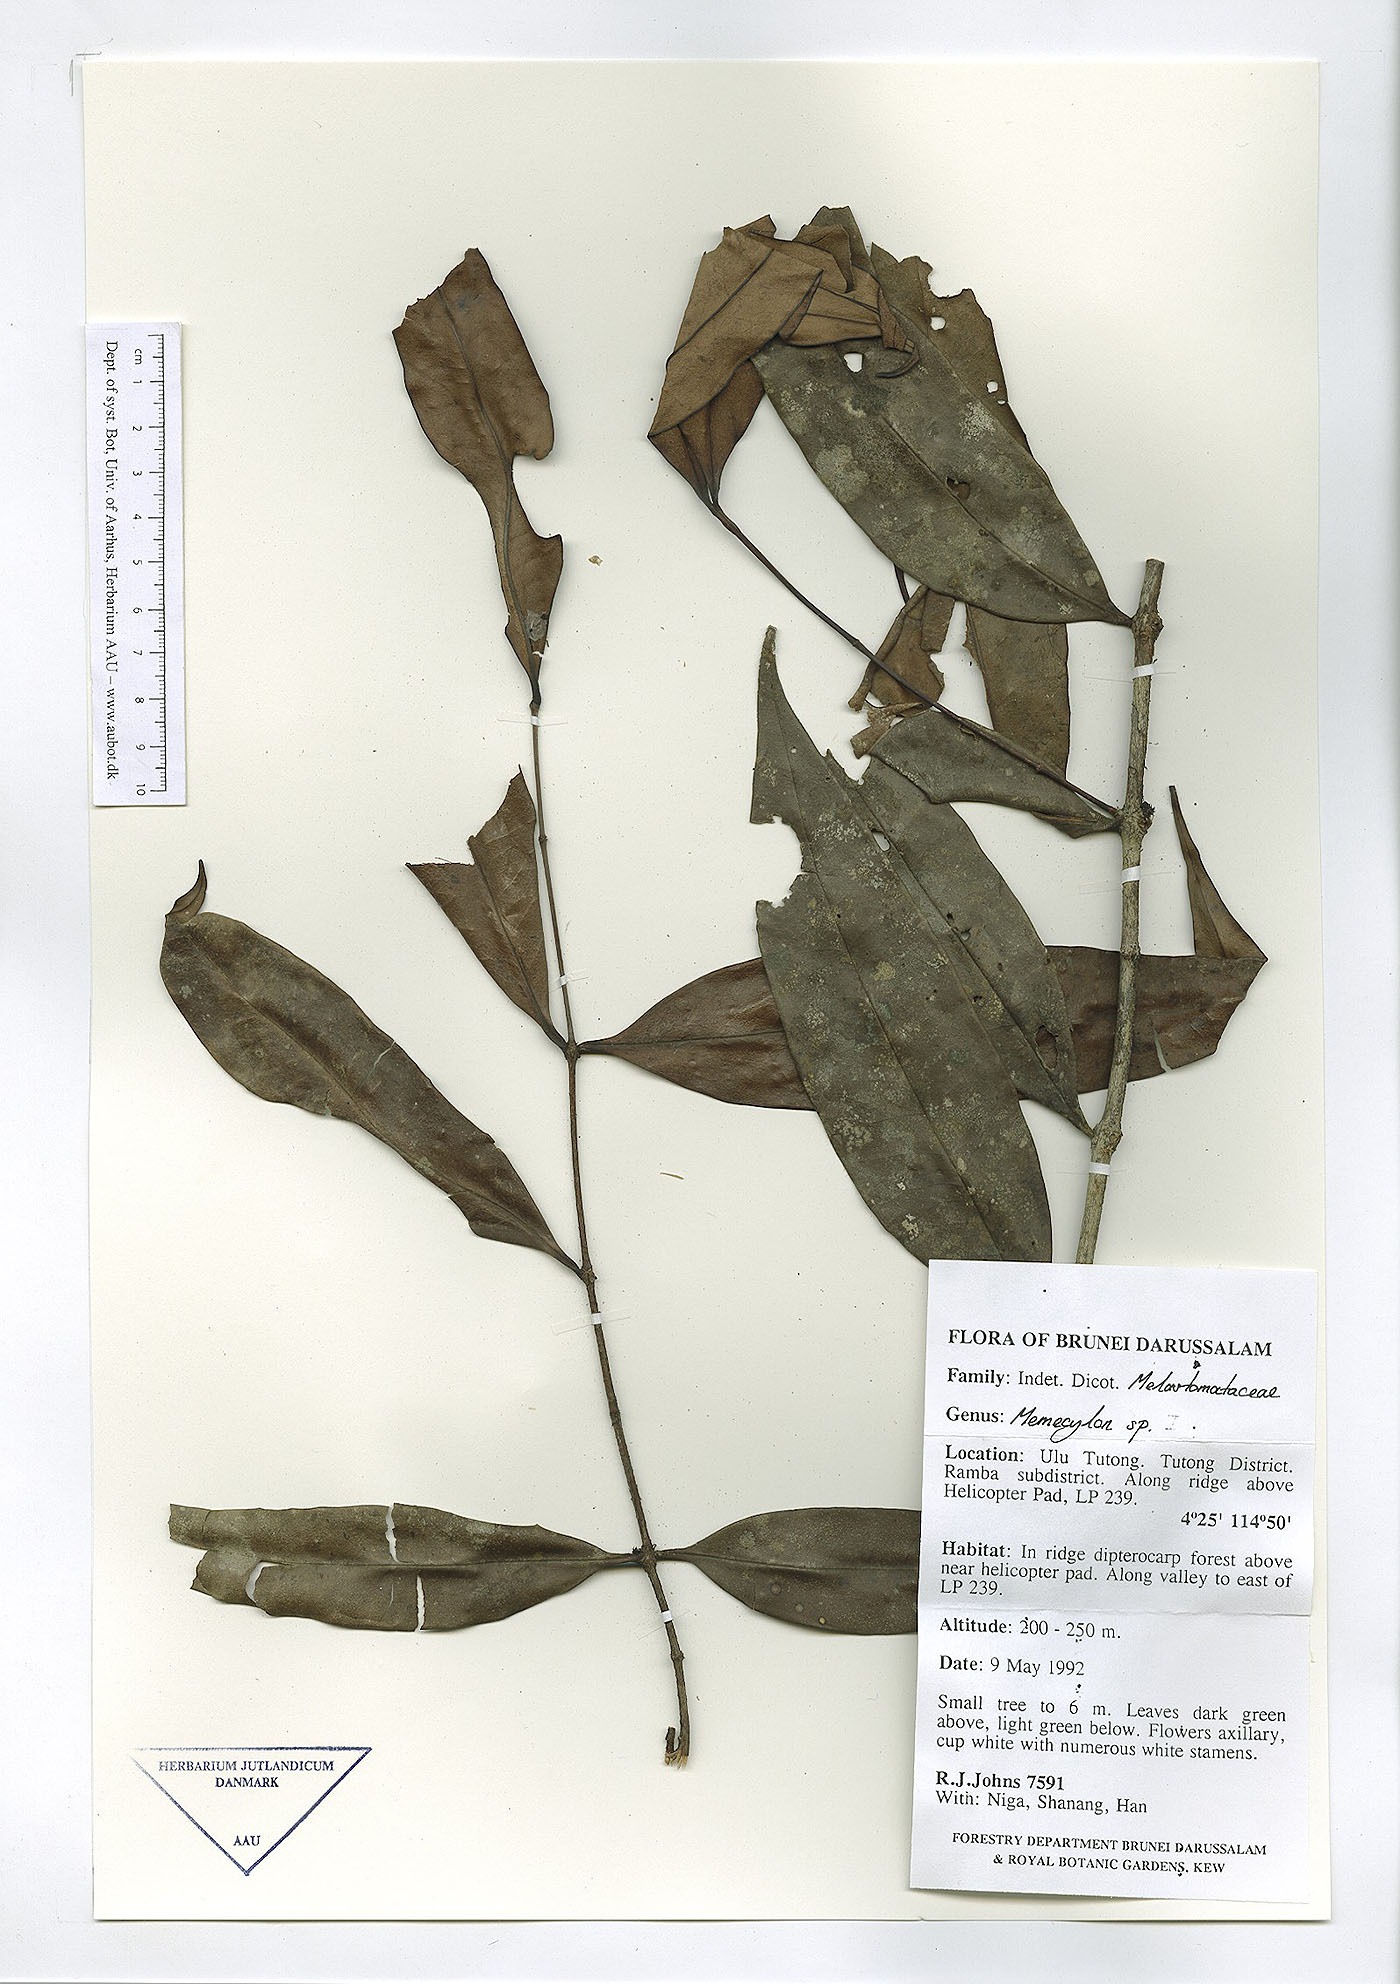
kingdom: Plantae
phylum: Tracheophyta
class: Magnoliopsida
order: Myrtales
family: Melastomataceae
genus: Memecylon
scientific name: Memecylon
